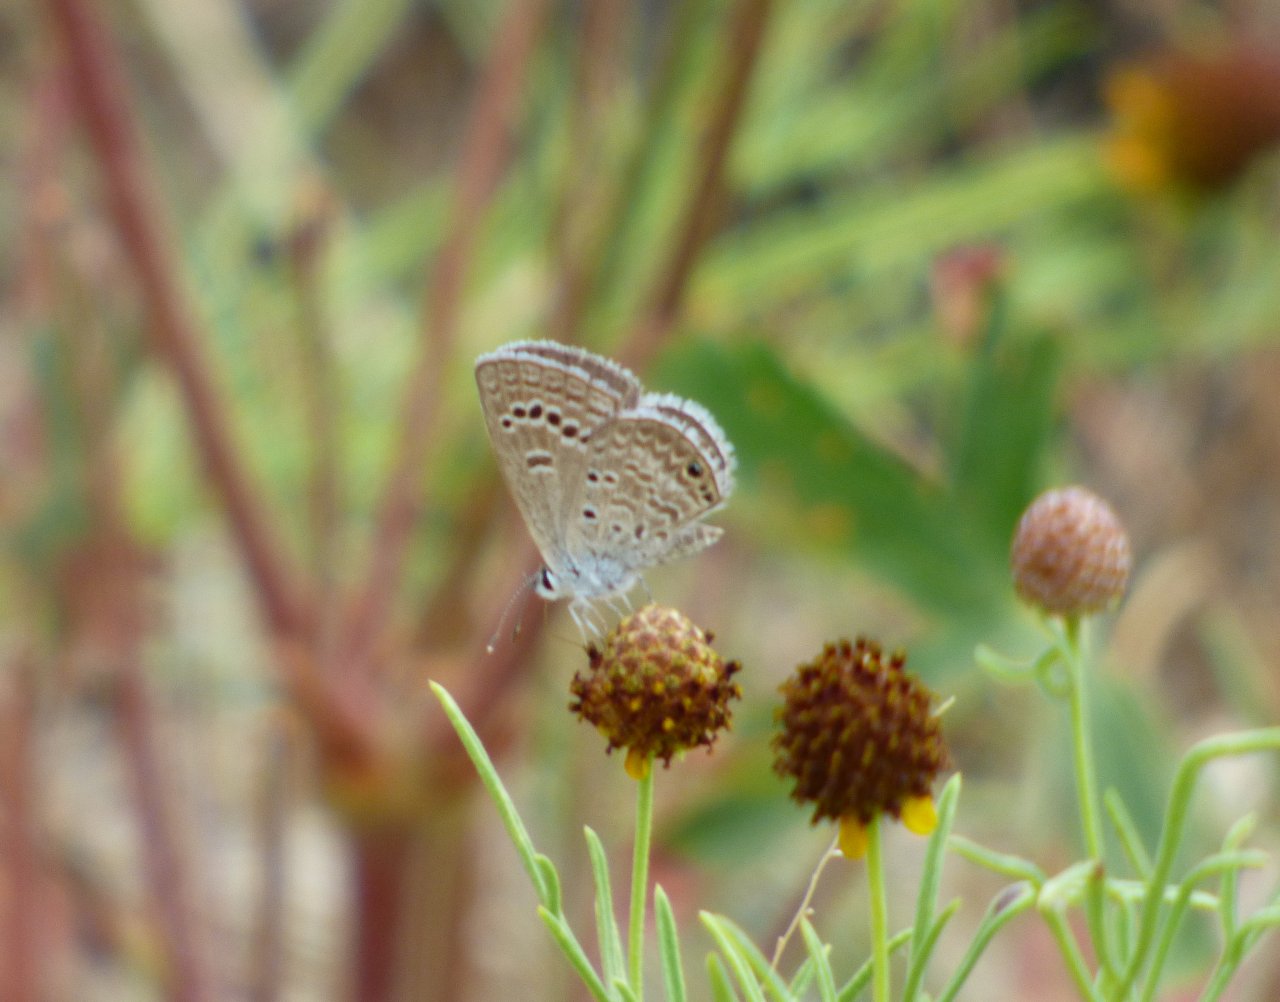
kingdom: Animalia
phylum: Arthropoda
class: Insecta
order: Lepidoptera
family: Lycaenidae
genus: Echinargus
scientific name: Echinargus isola
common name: Reakirt's Blue
